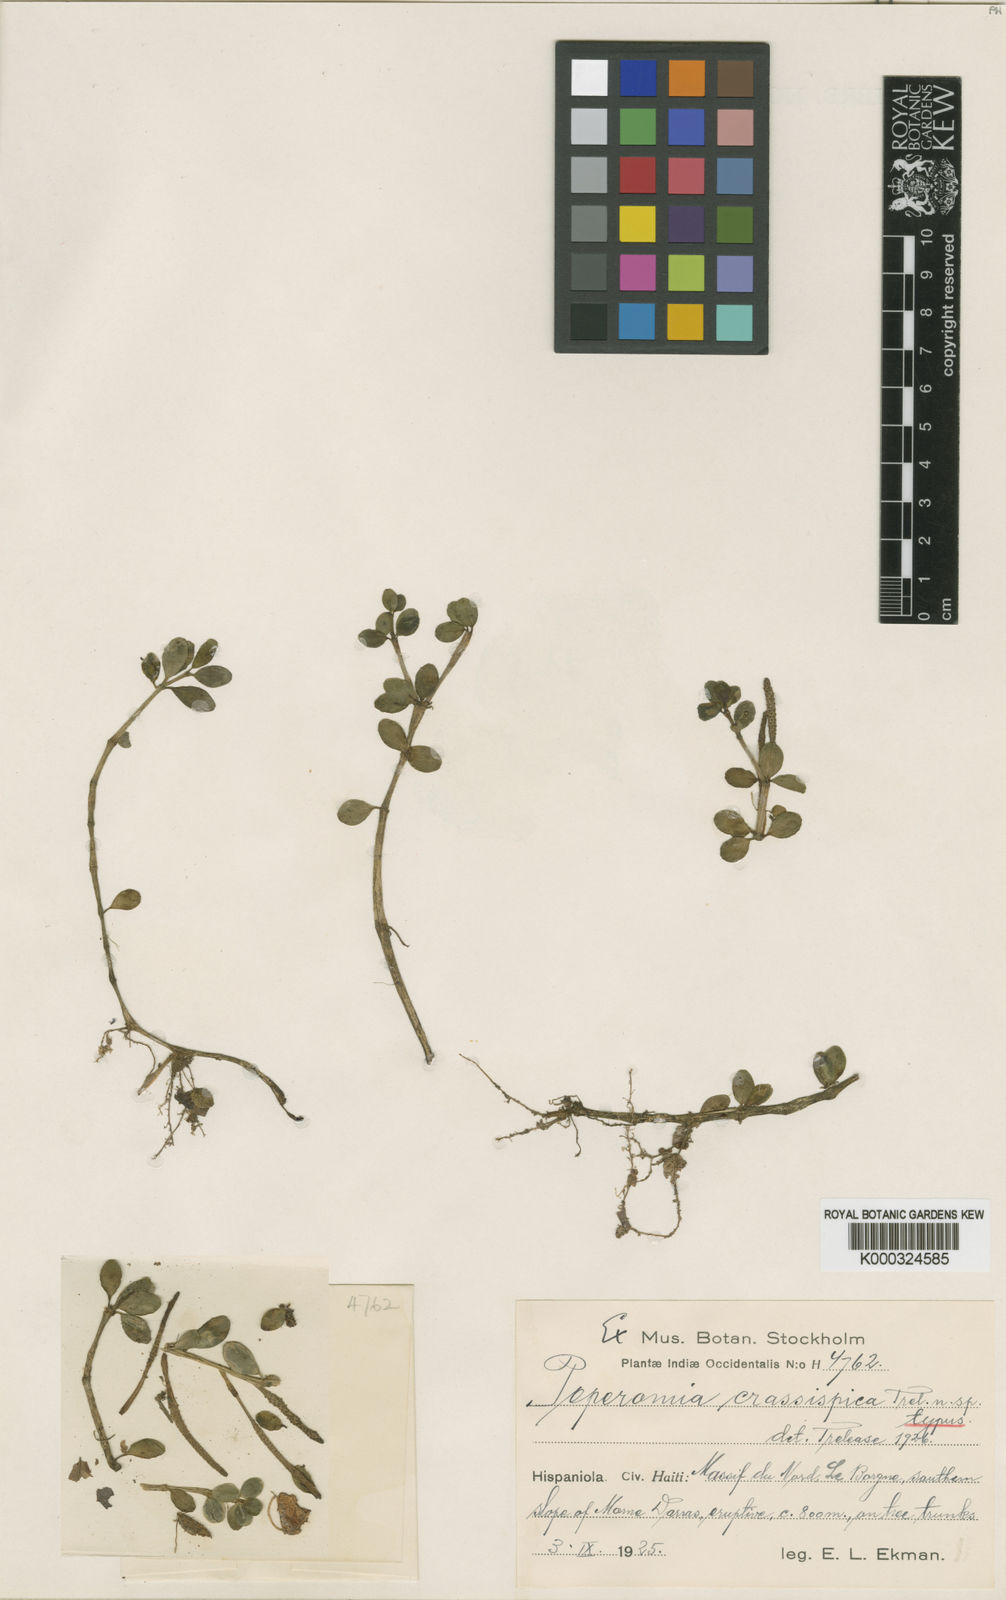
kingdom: Plantae
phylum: Tracheophyta
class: Magnoliopsida
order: Piperales
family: Piperaceae
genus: Peperomia
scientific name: Peperomia cogniauxii
